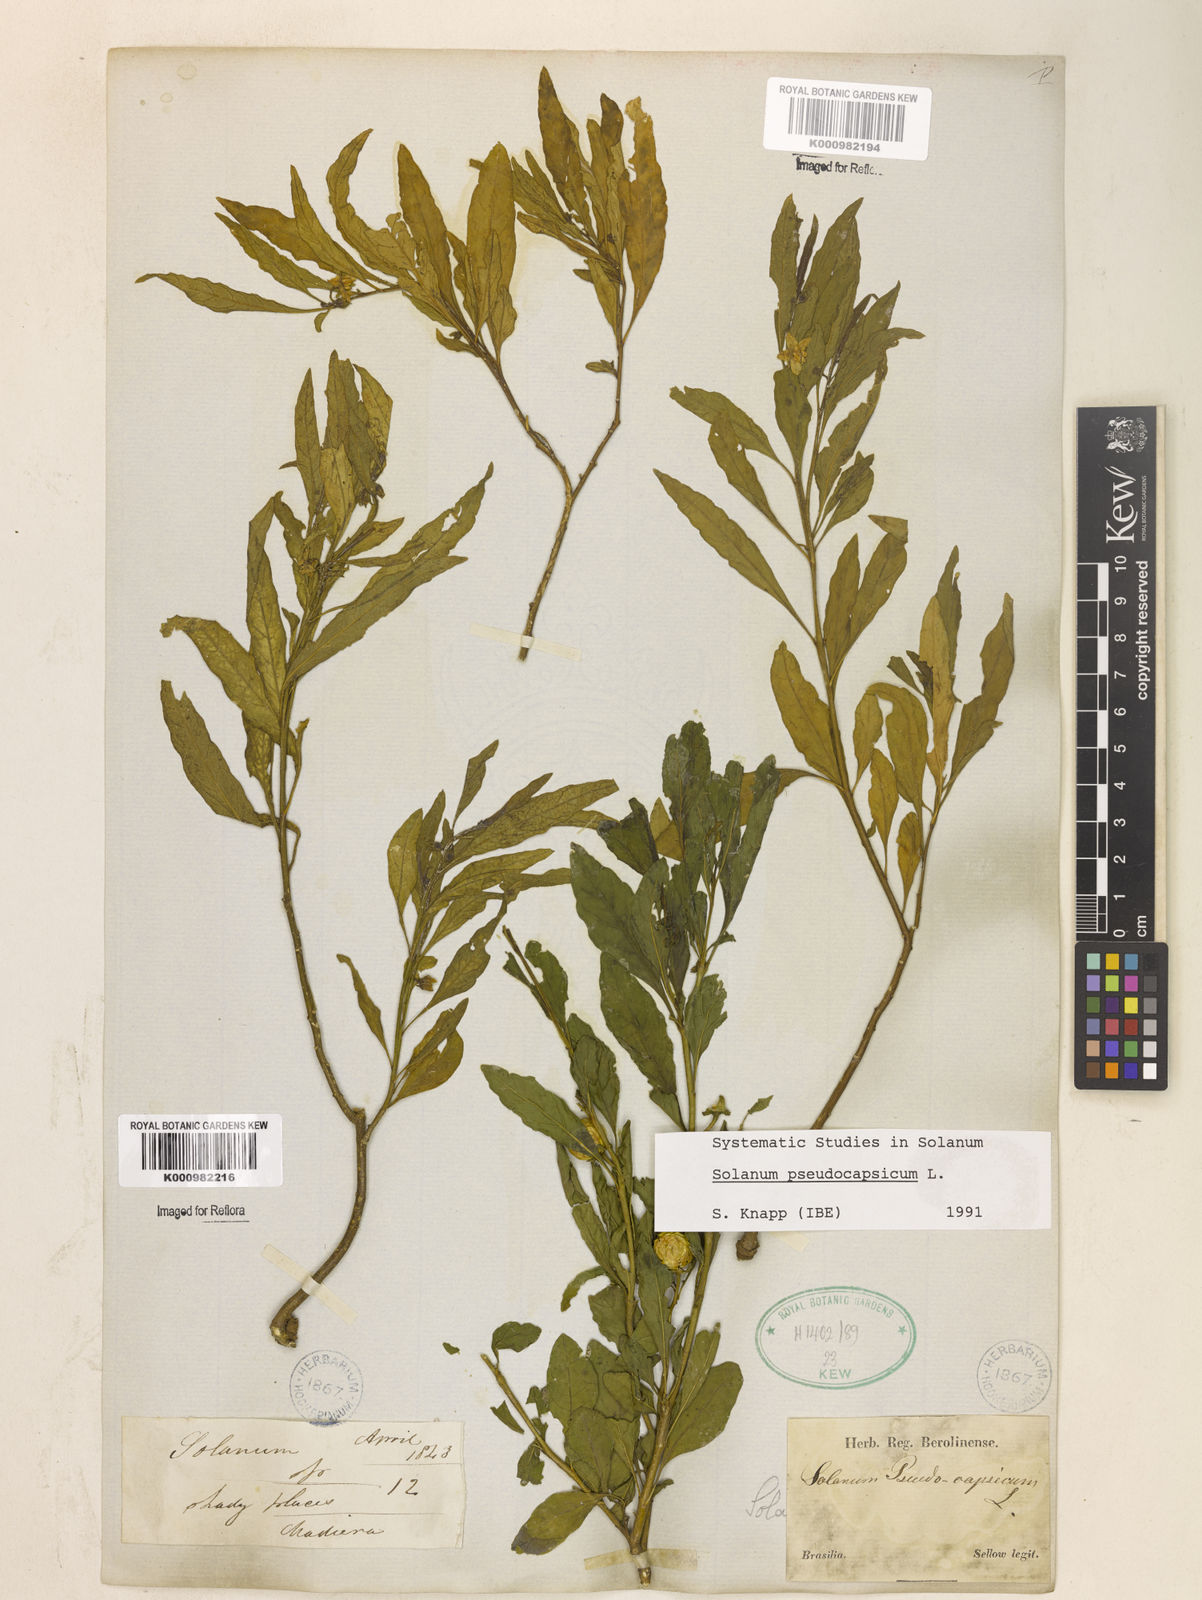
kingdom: Plantae
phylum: Tracheophyta
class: Magnoliopsida
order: Solanales
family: Solanaceae
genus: Solanum
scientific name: Solanum pseudocapsicum
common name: Jerusalem cherry
